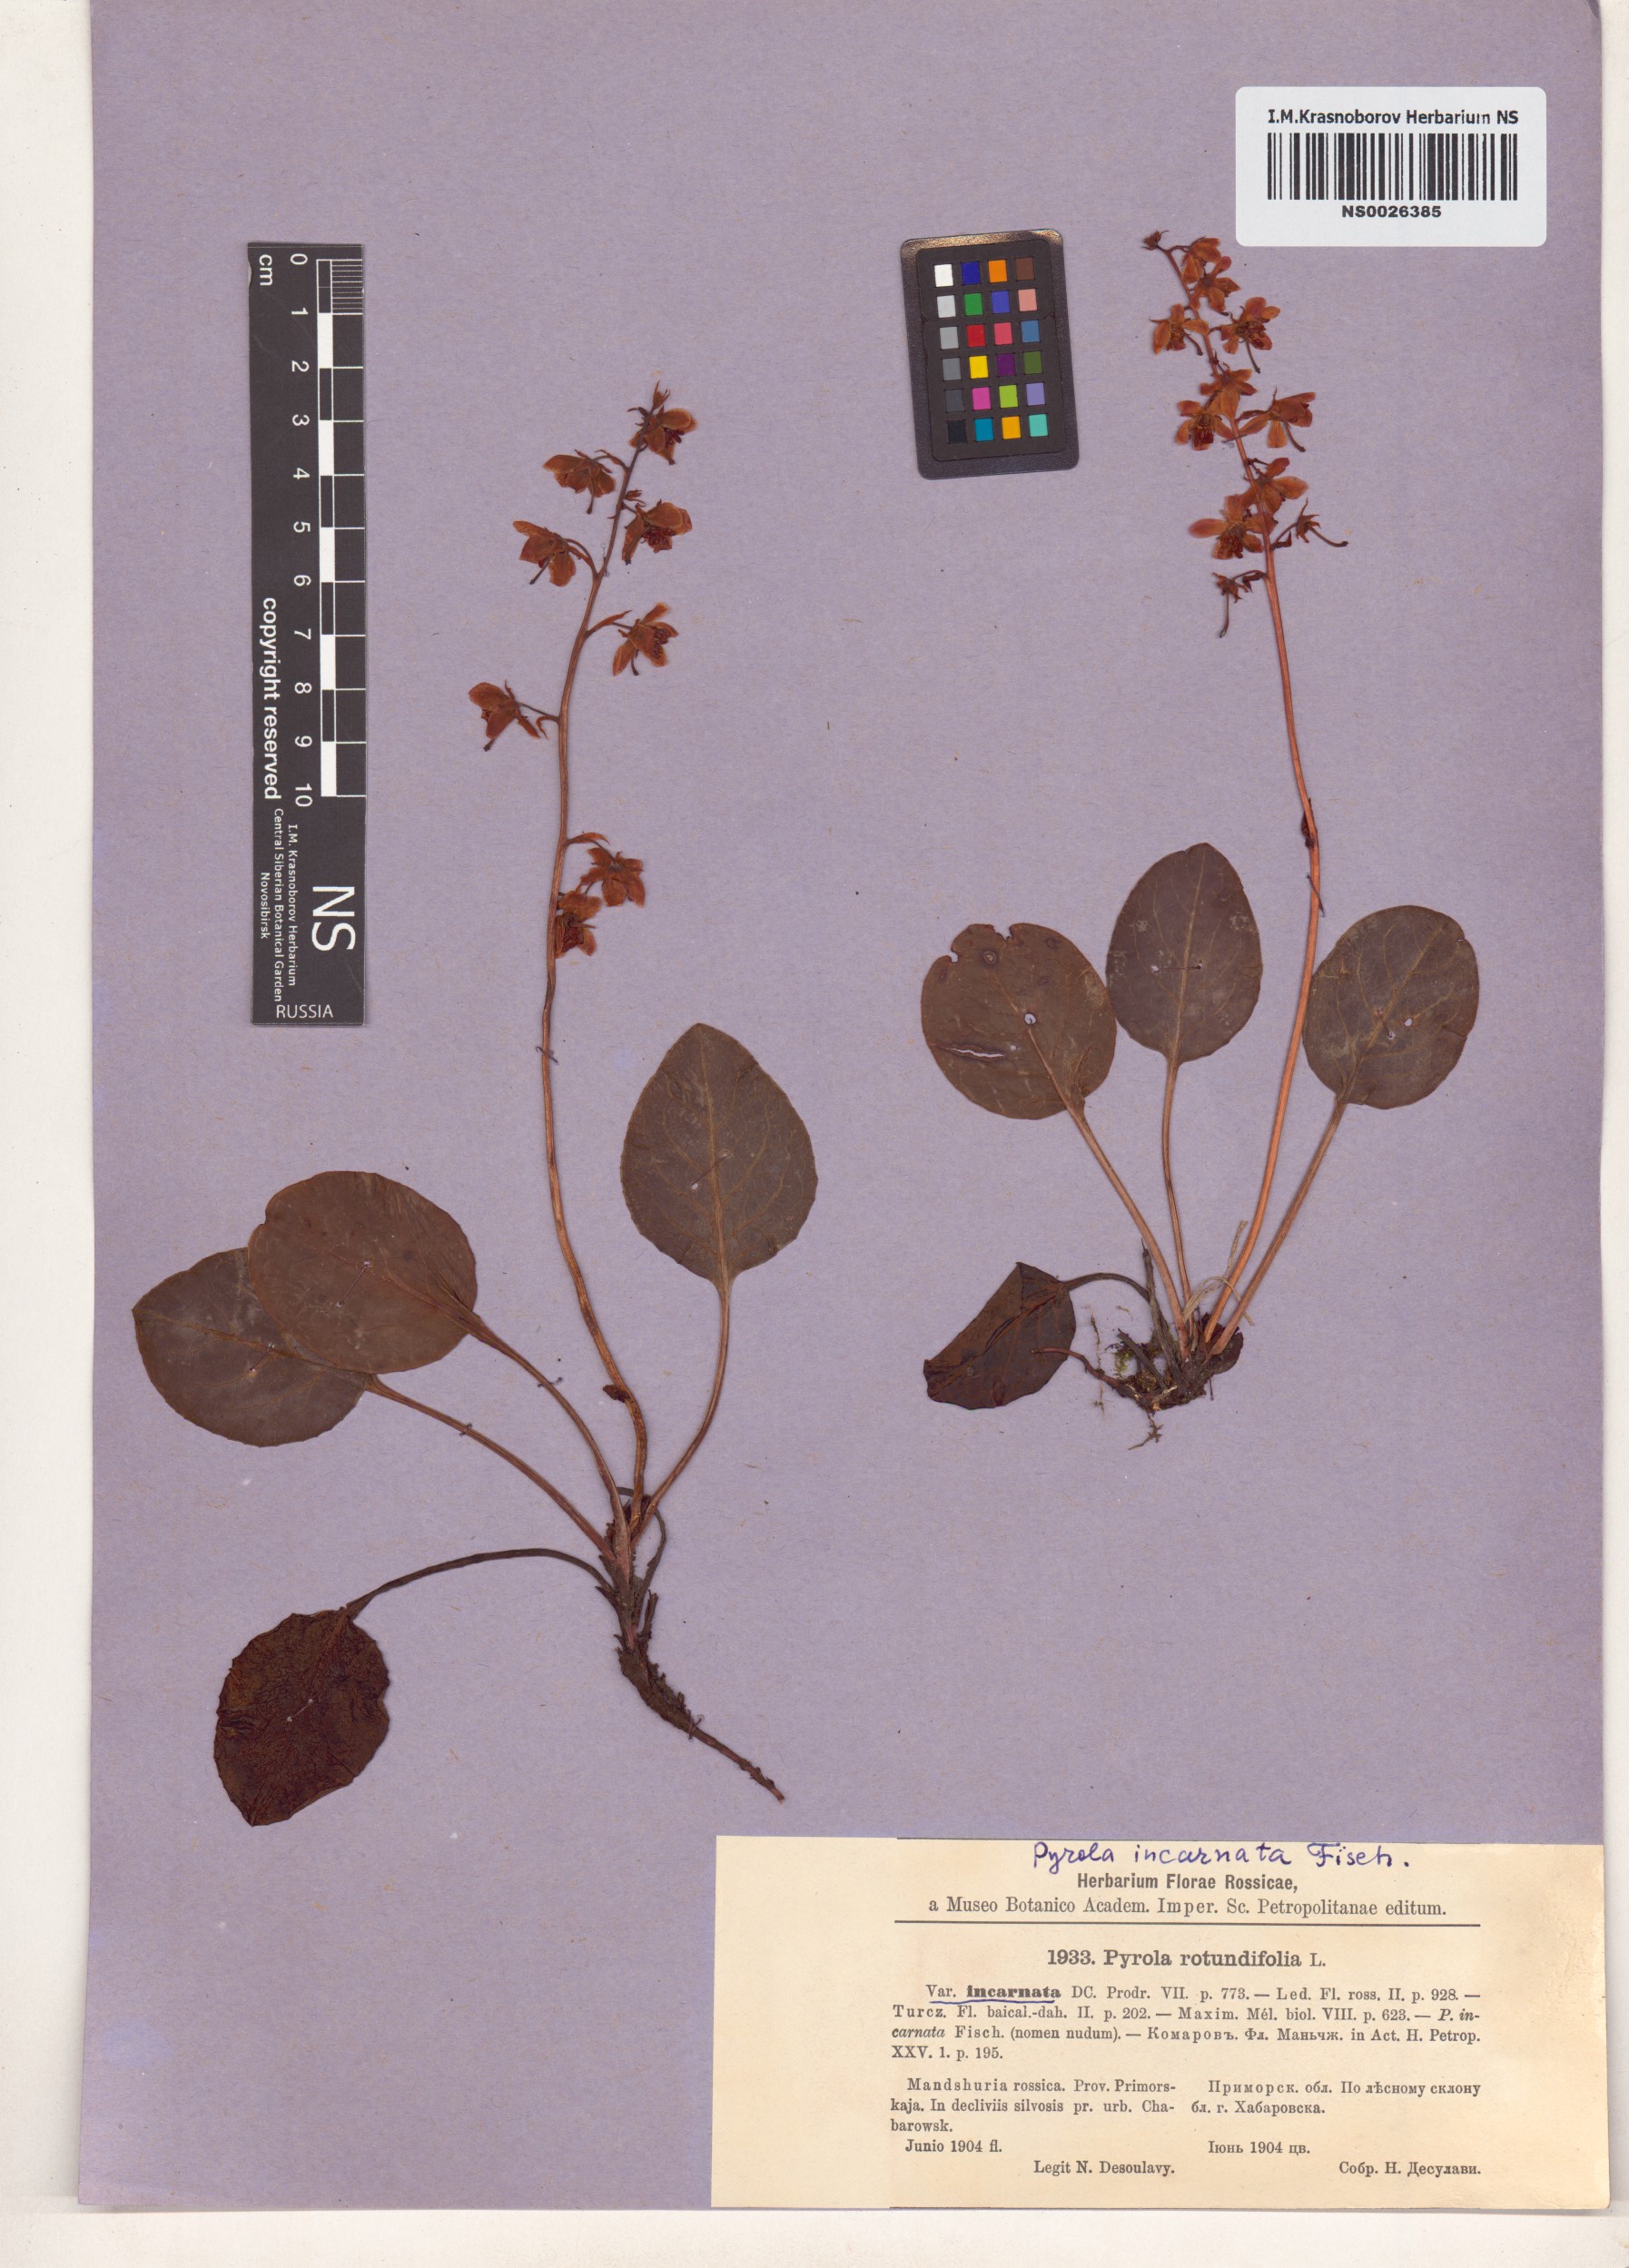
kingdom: Plantae
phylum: Tracheophyta
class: Magnoliopsida
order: Ericales
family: Ericaceae
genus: Pyrola
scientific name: Pyrola asarifolia
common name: Bog wintergreen
